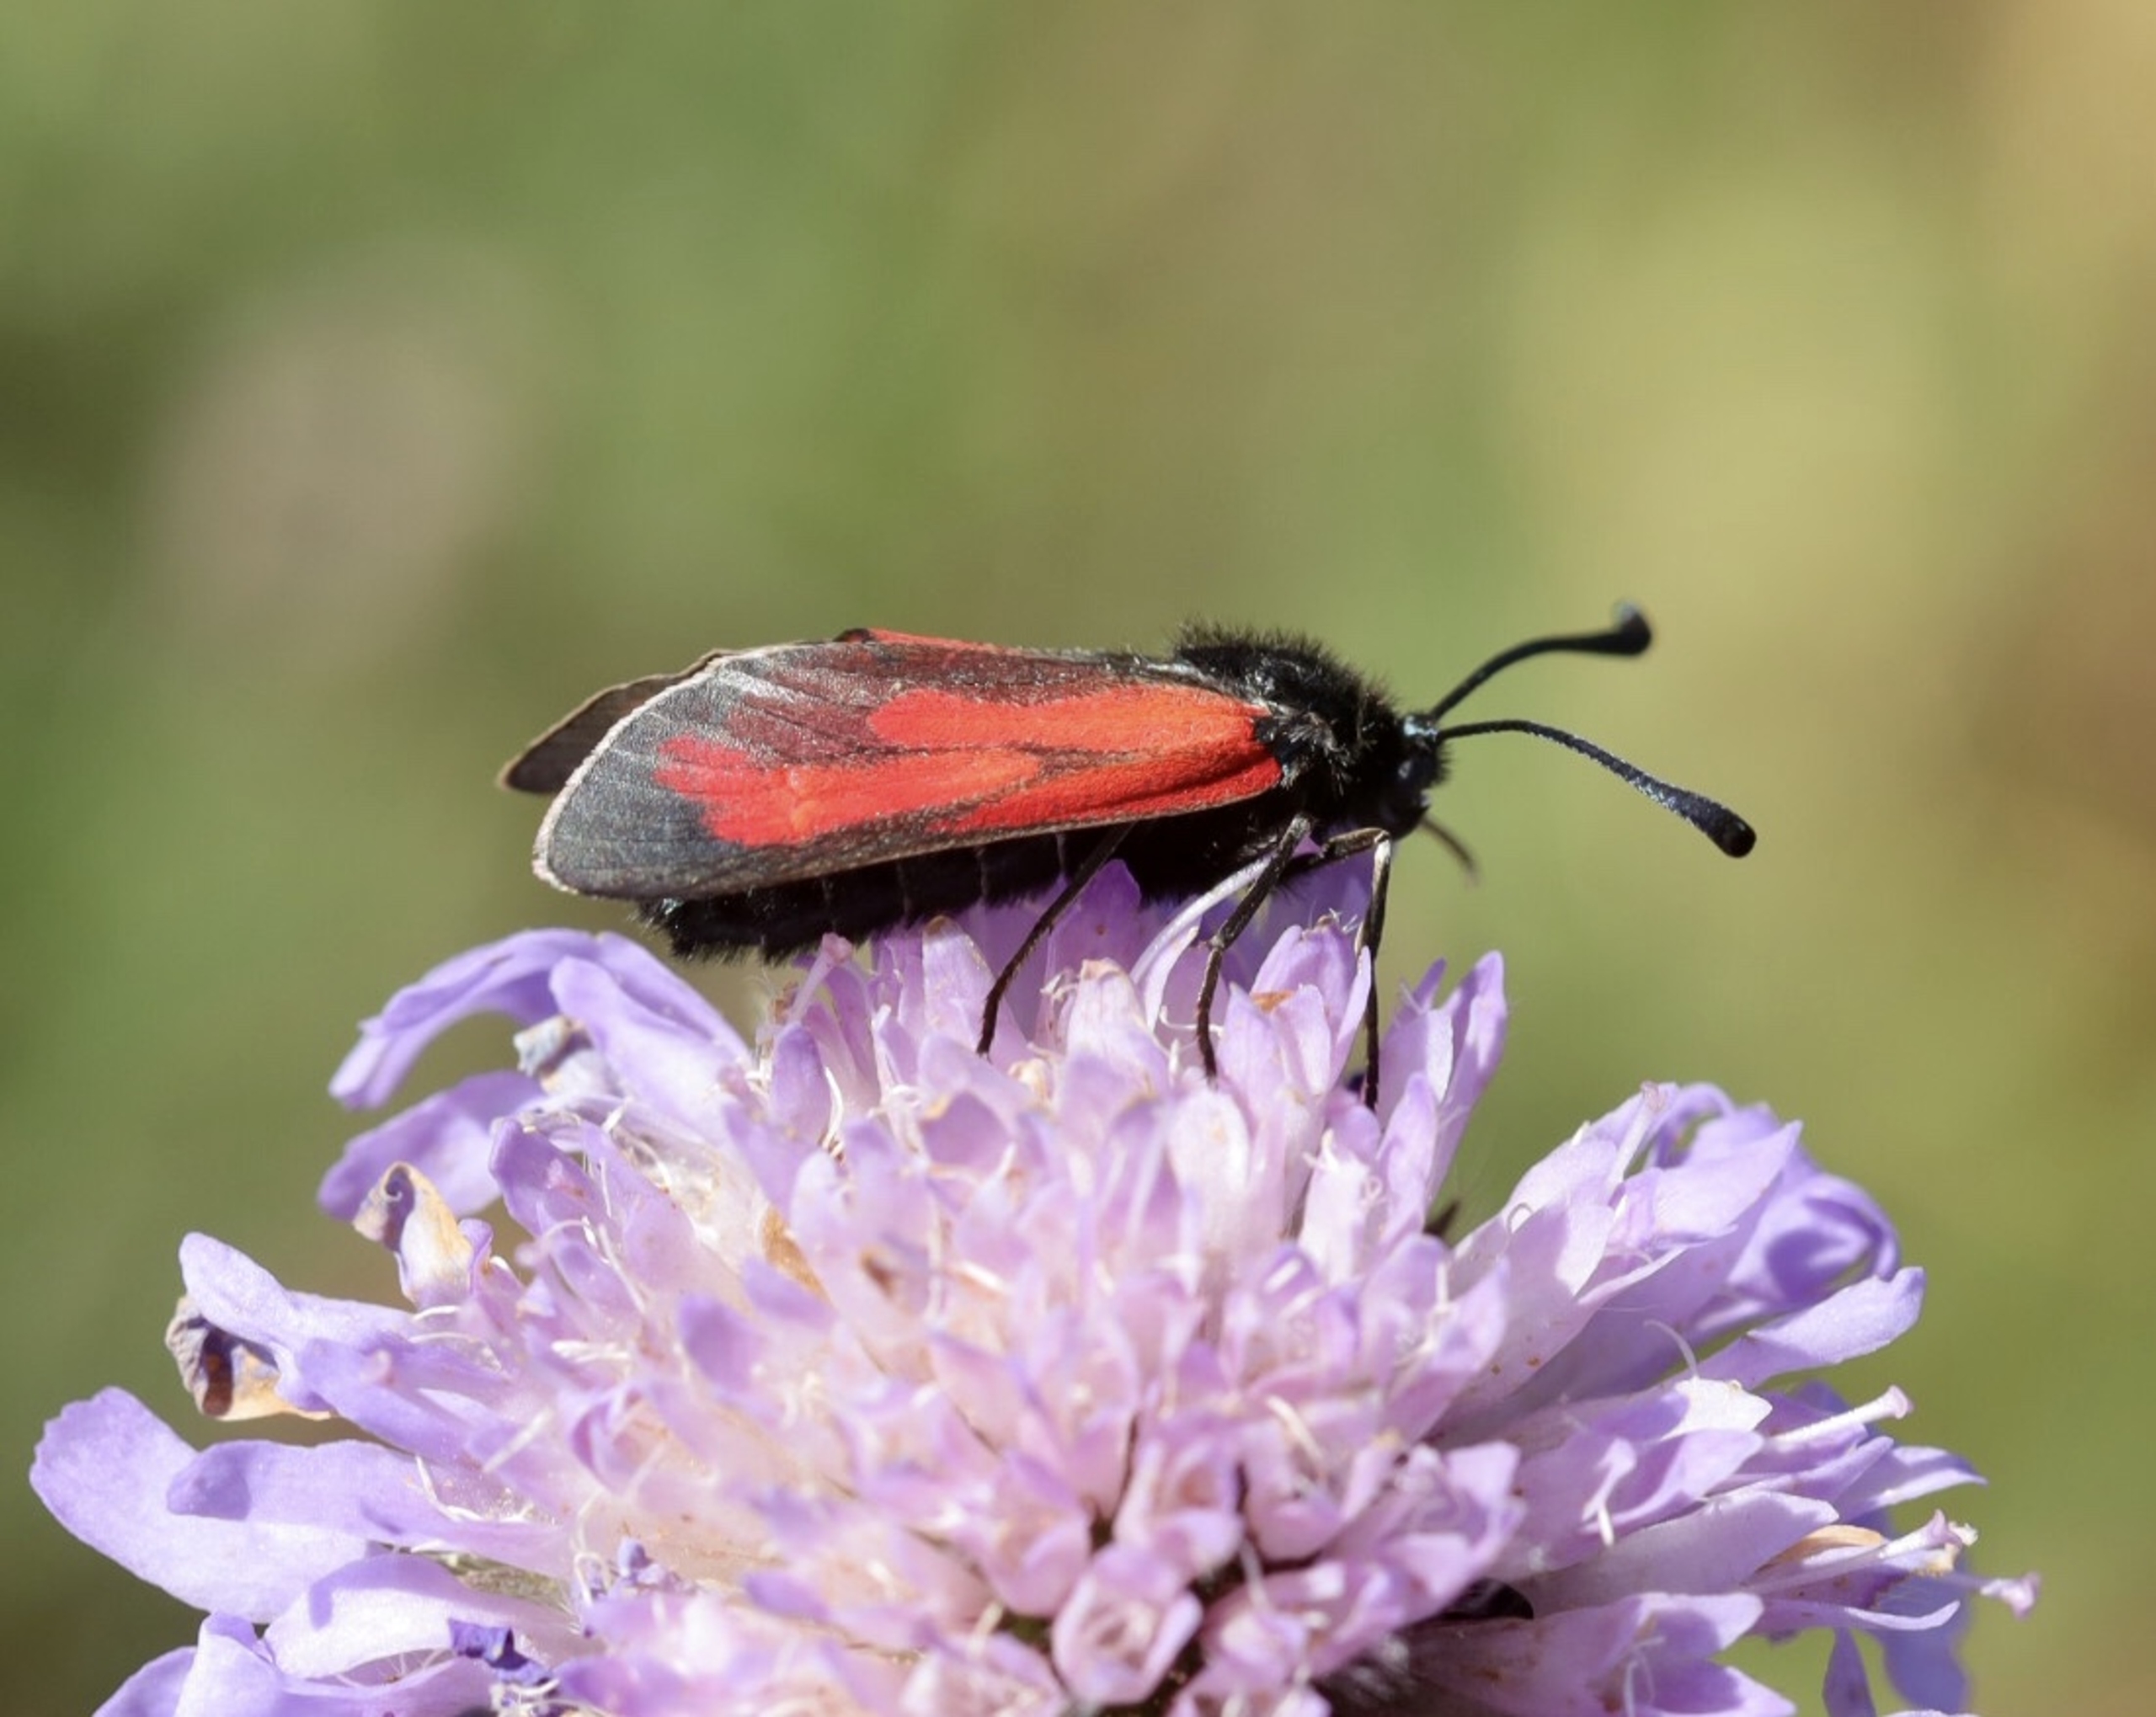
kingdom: Animalia
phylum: Arthropoda
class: Insecta
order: Lepidoptera
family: Zygaenidae
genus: Zygaena
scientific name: Zygaena minos
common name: Pimpernelkøllesværmer
